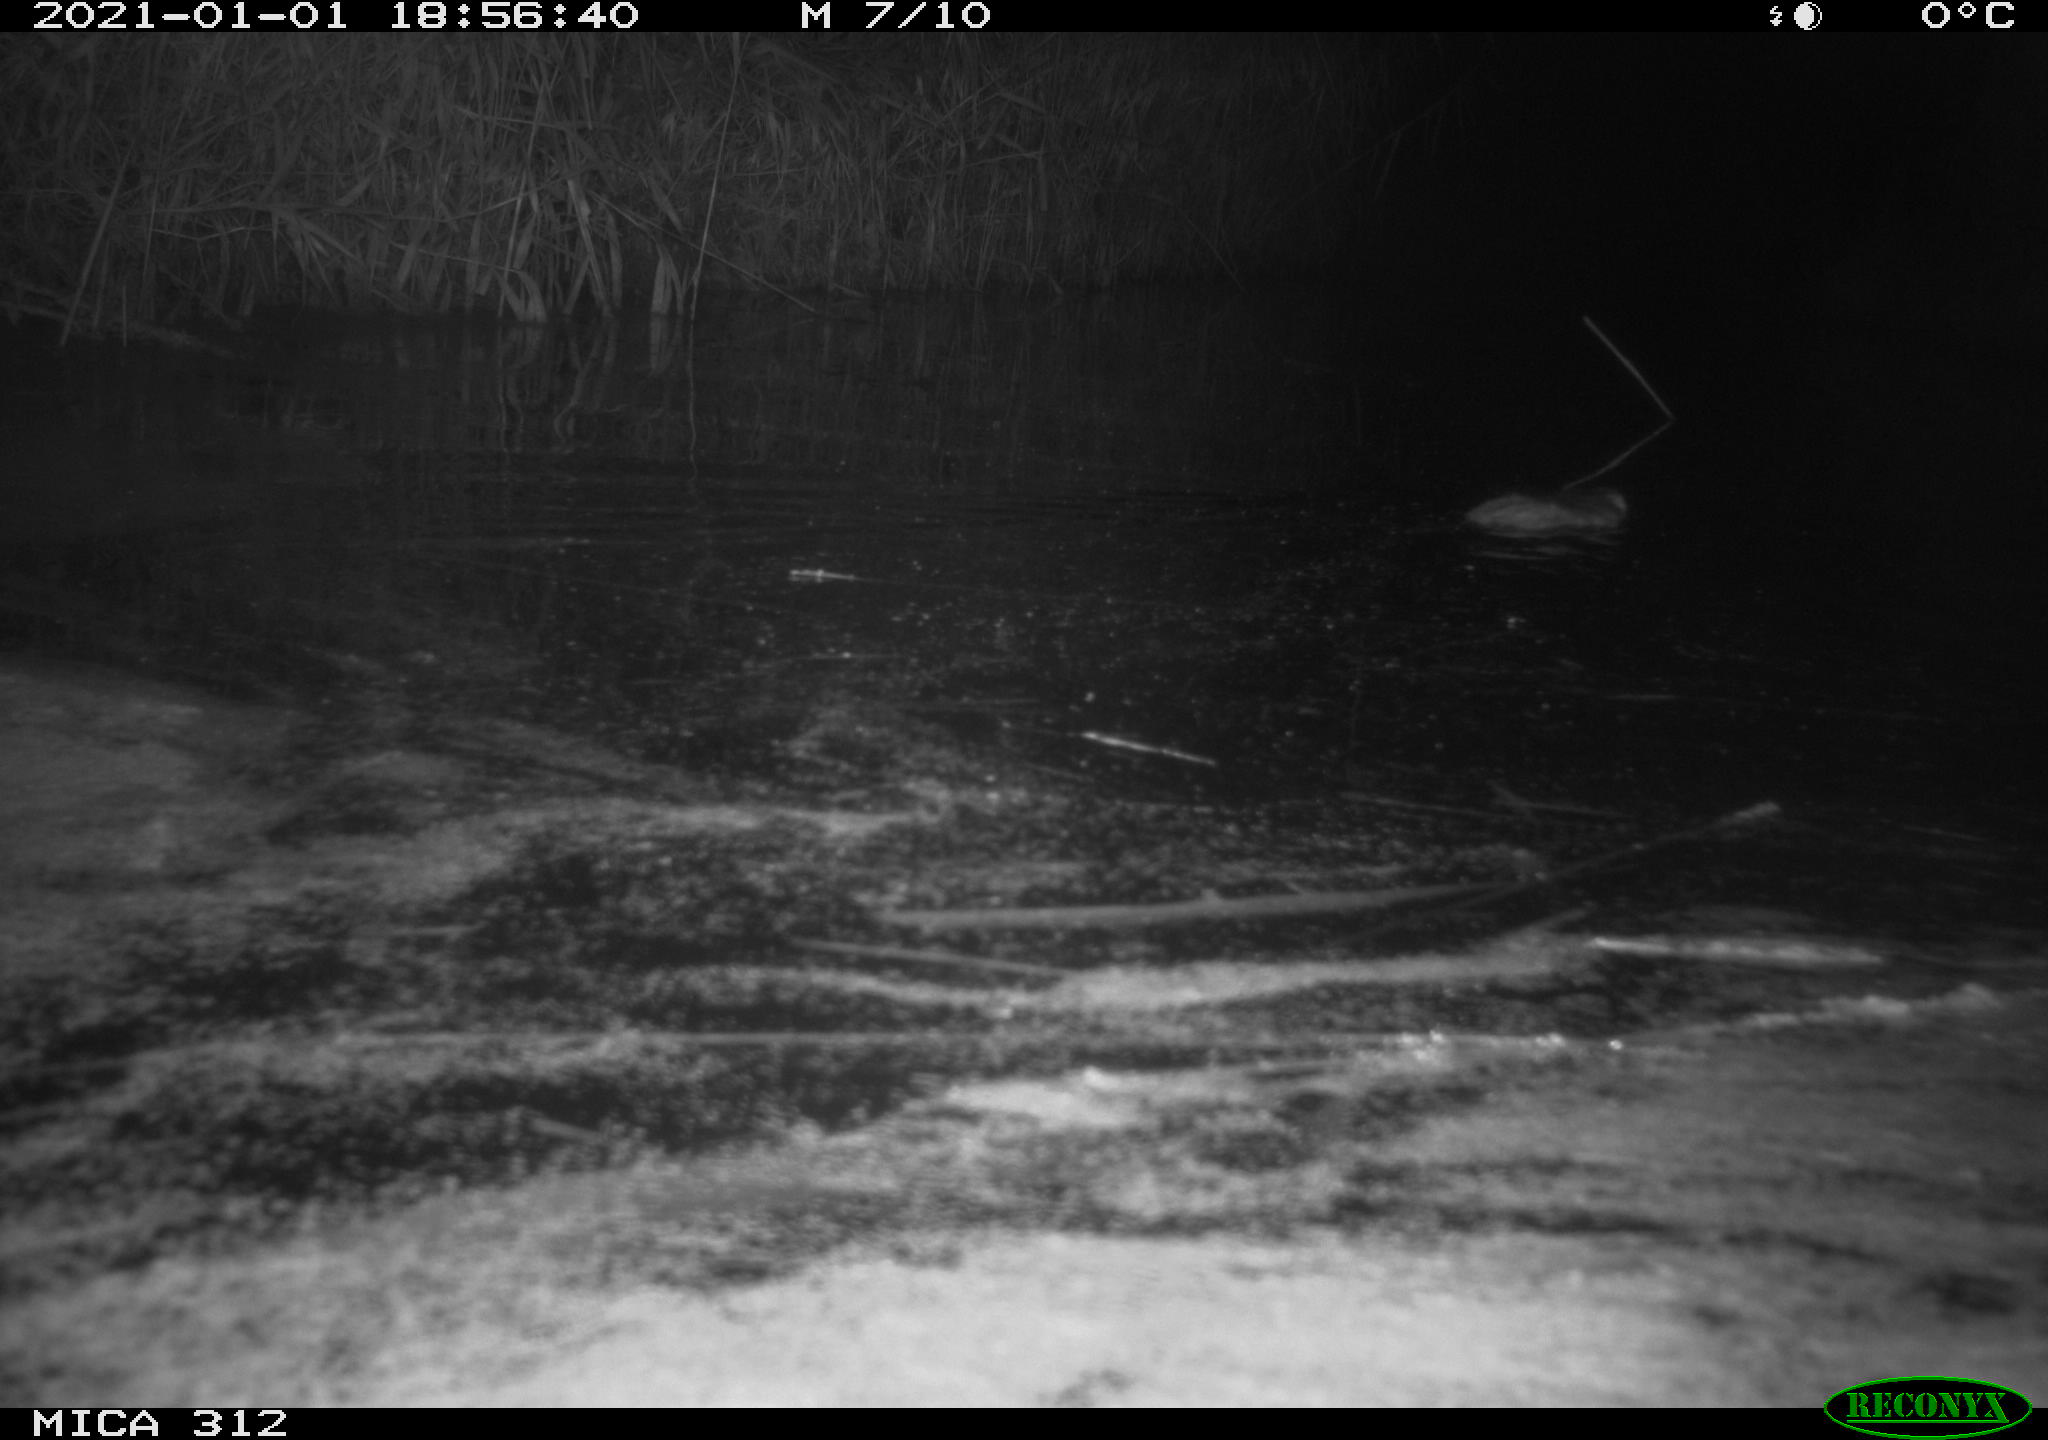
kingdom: Animalia
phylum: Chordata
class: Mammalia
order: Rodentia
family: Muridae
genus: Rattus
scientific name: Rattus norvegicus
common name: Brown rat
